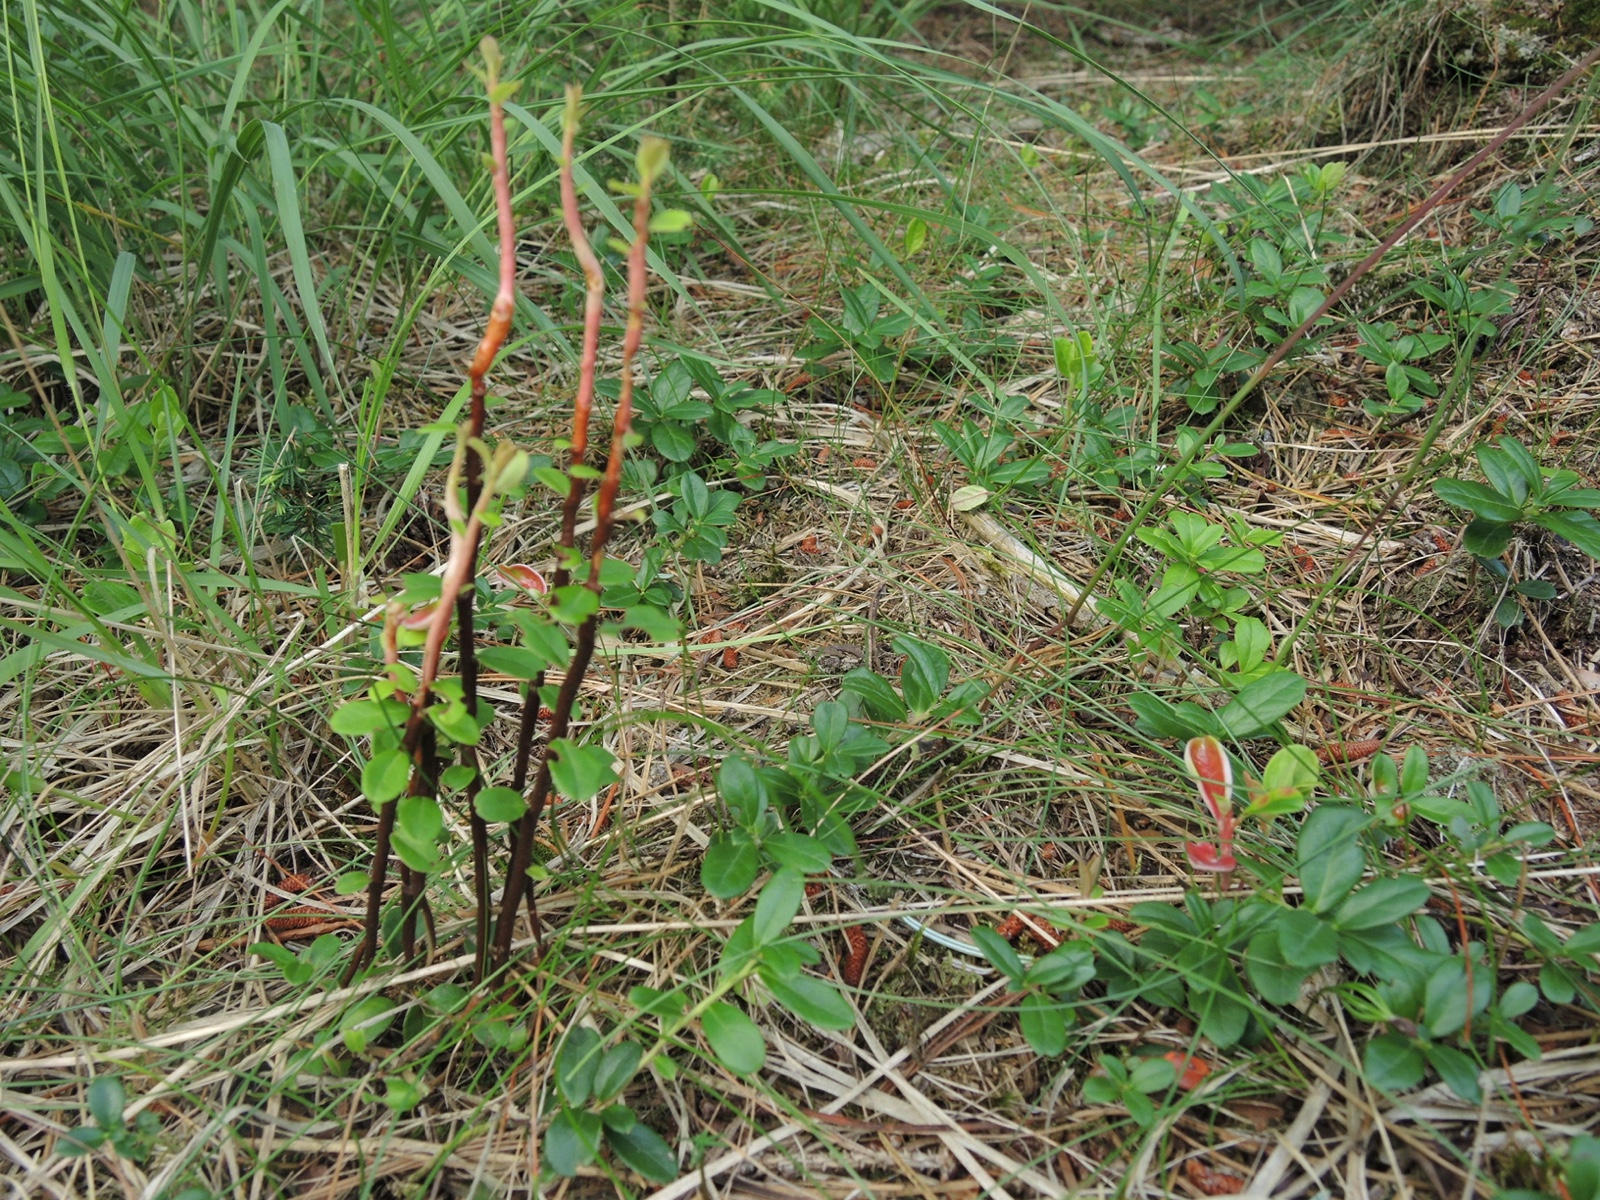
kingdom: Fungi
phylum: Basidiomycota
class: Pucciniomycetes
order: Pucciniales
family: Pucciniastraceae
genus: Calyptospora
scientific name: Calyptospora columnaris
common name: Huckleberry broom rust fungus
